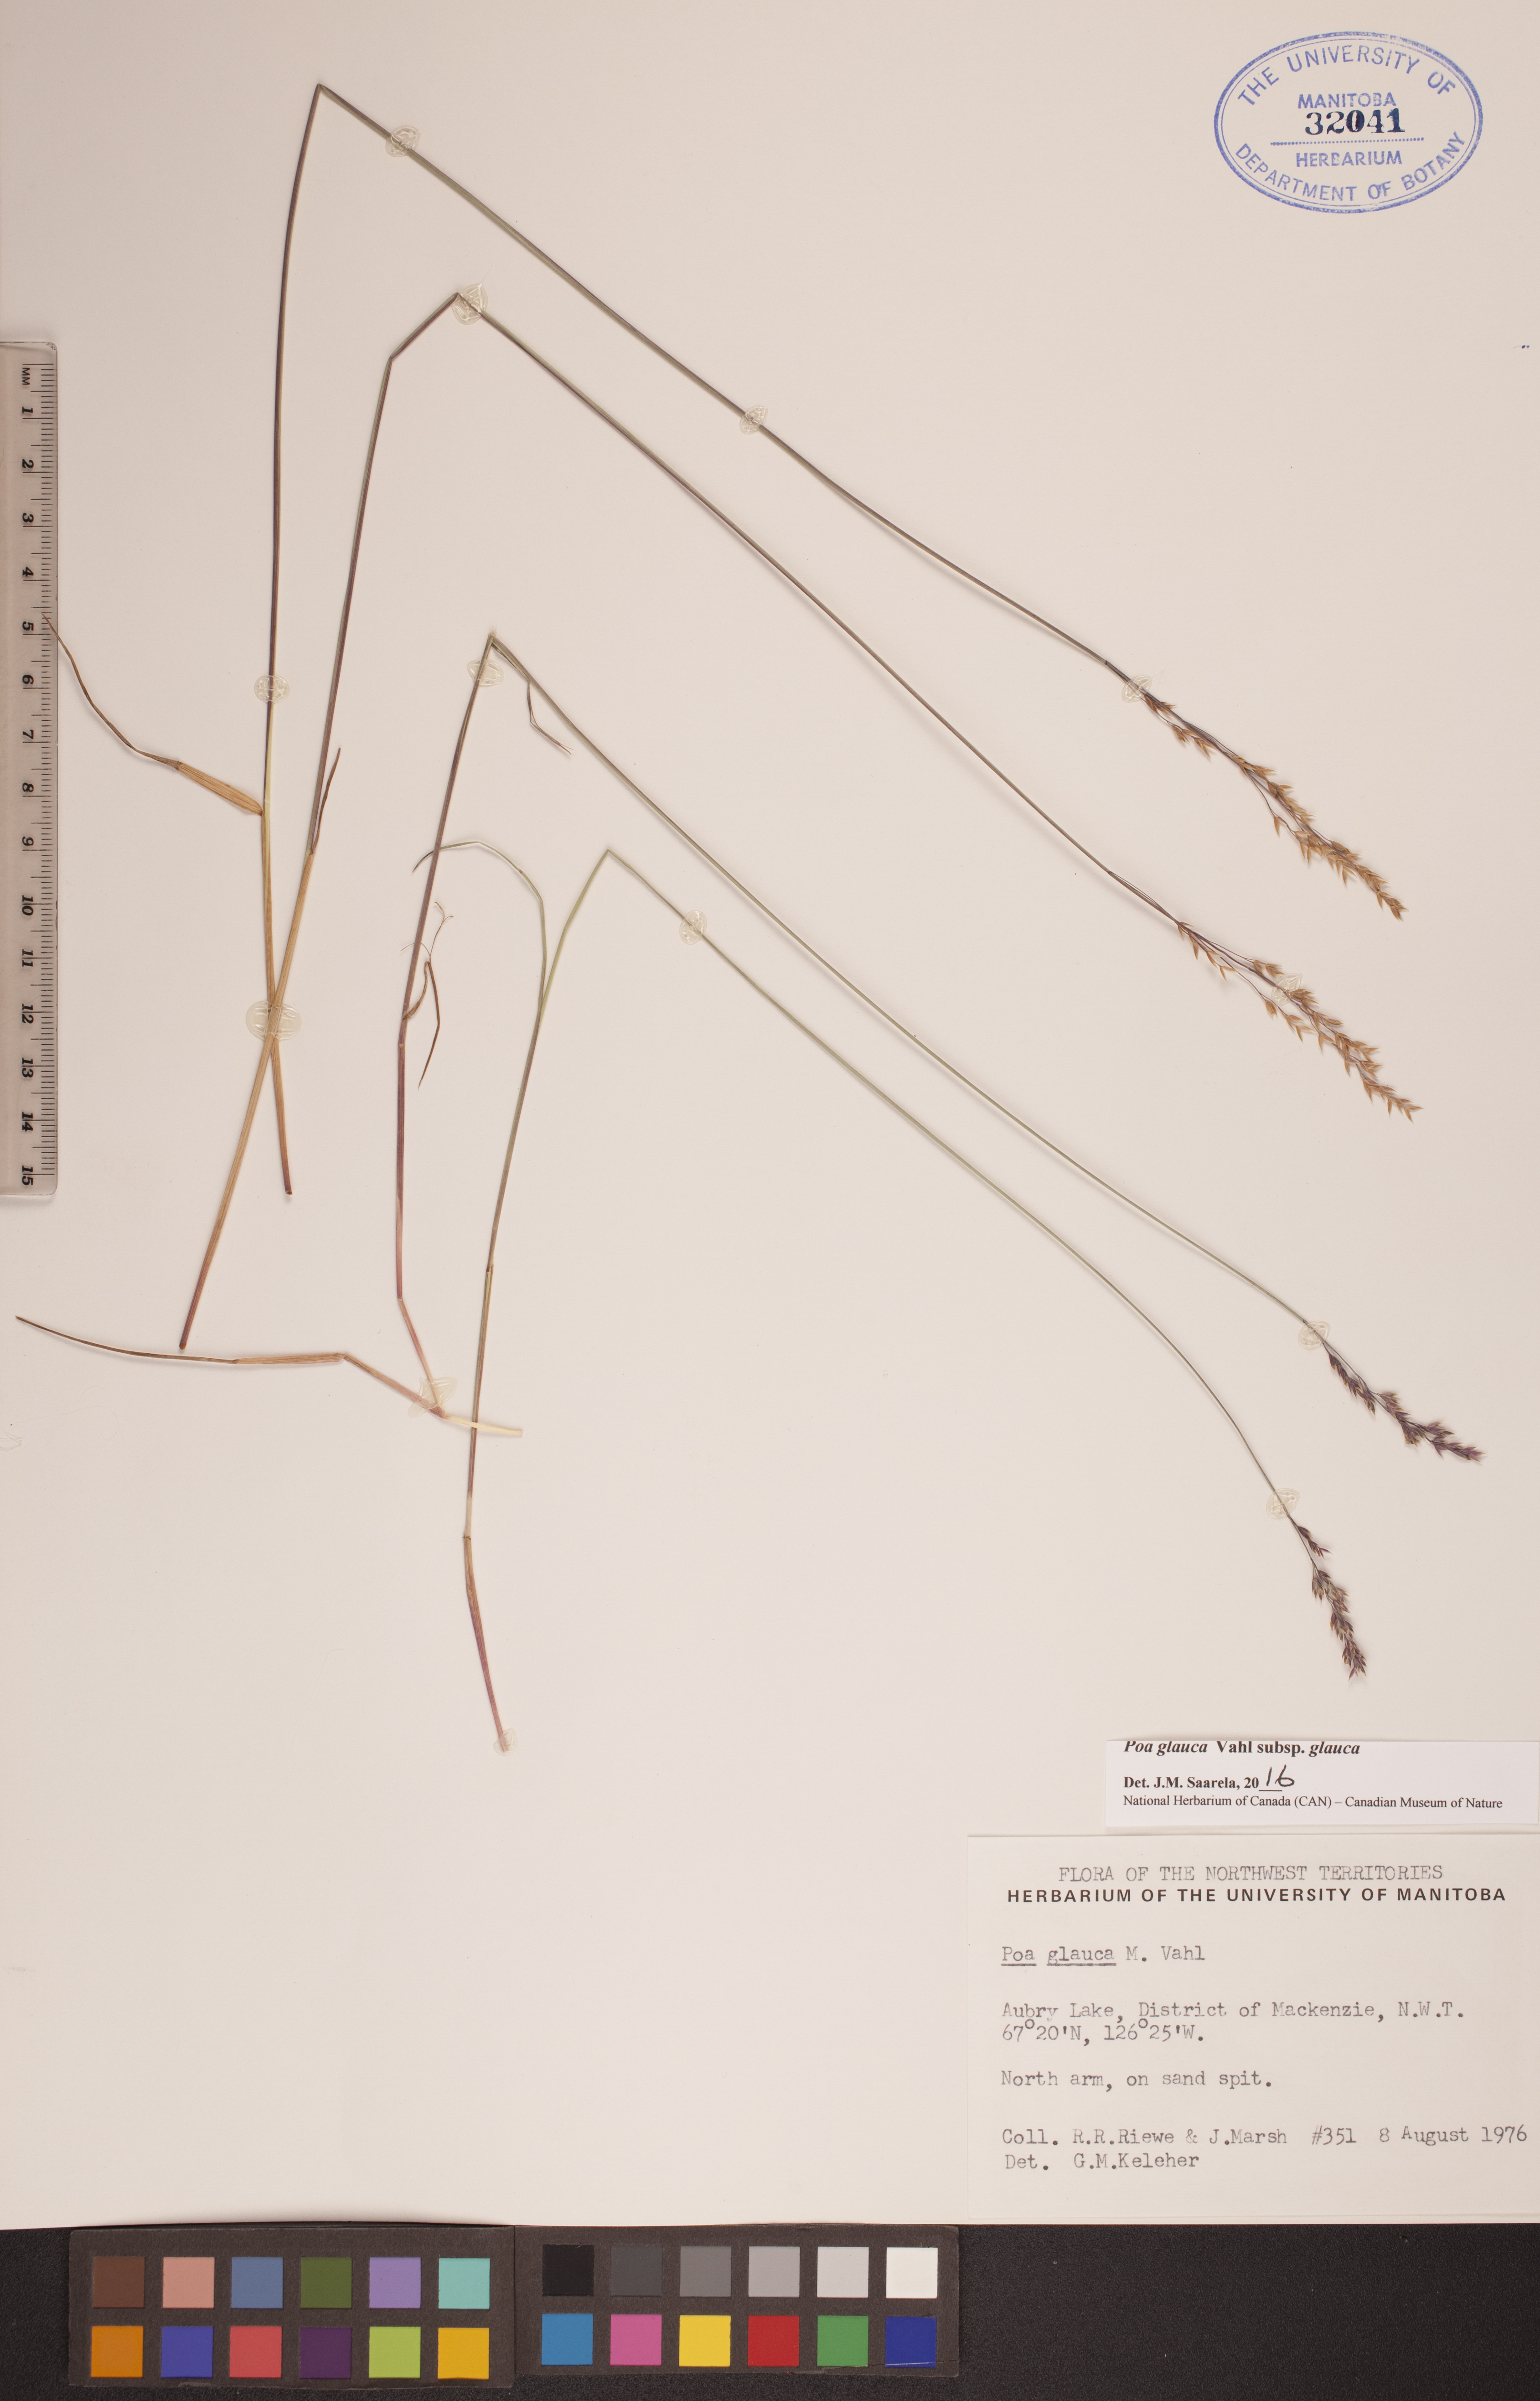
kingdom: Plantae
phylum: Tracheophyta
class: Liliopsida
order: Poales
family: Poaceae
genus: Poa
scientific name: Poa glauca
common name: Glaucous bluegrass
